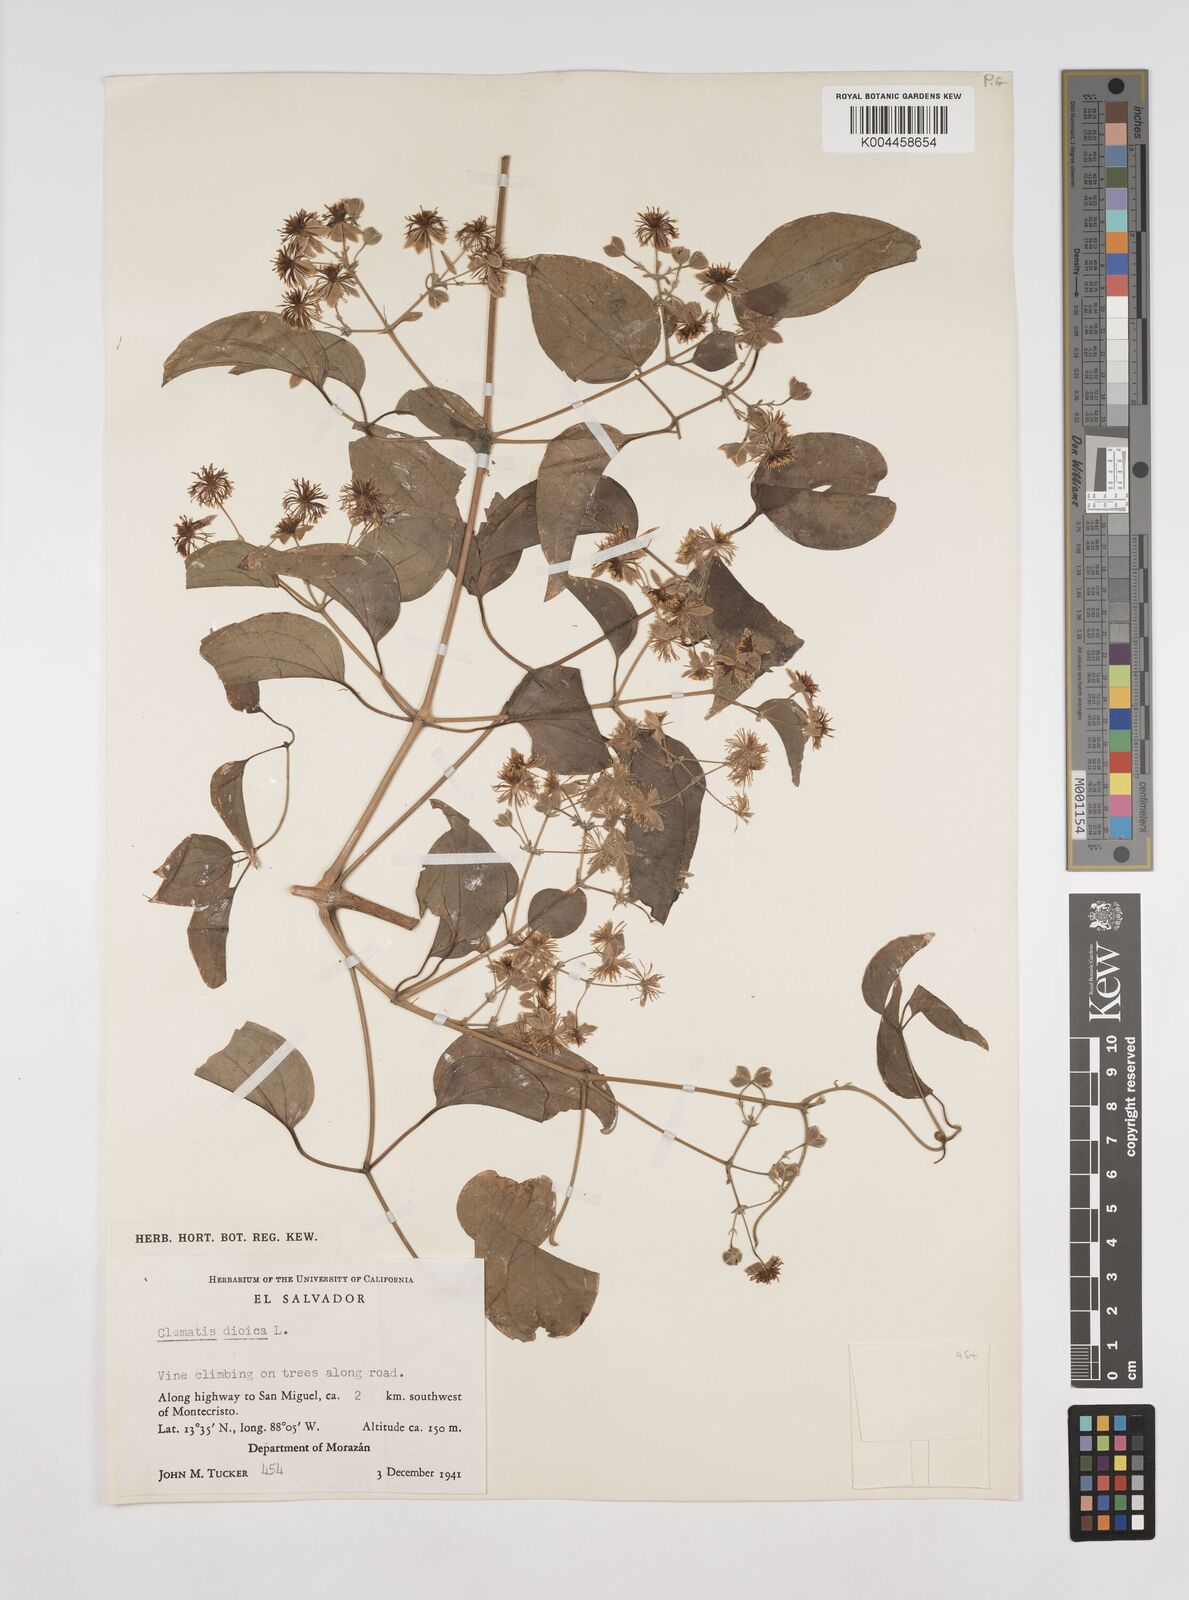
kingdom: Plantae
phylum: Tracheophyta
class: Magnoliopsida
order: Ranunculales
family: Ranunculaceae
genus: Clematis
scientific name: Clematis dioica
